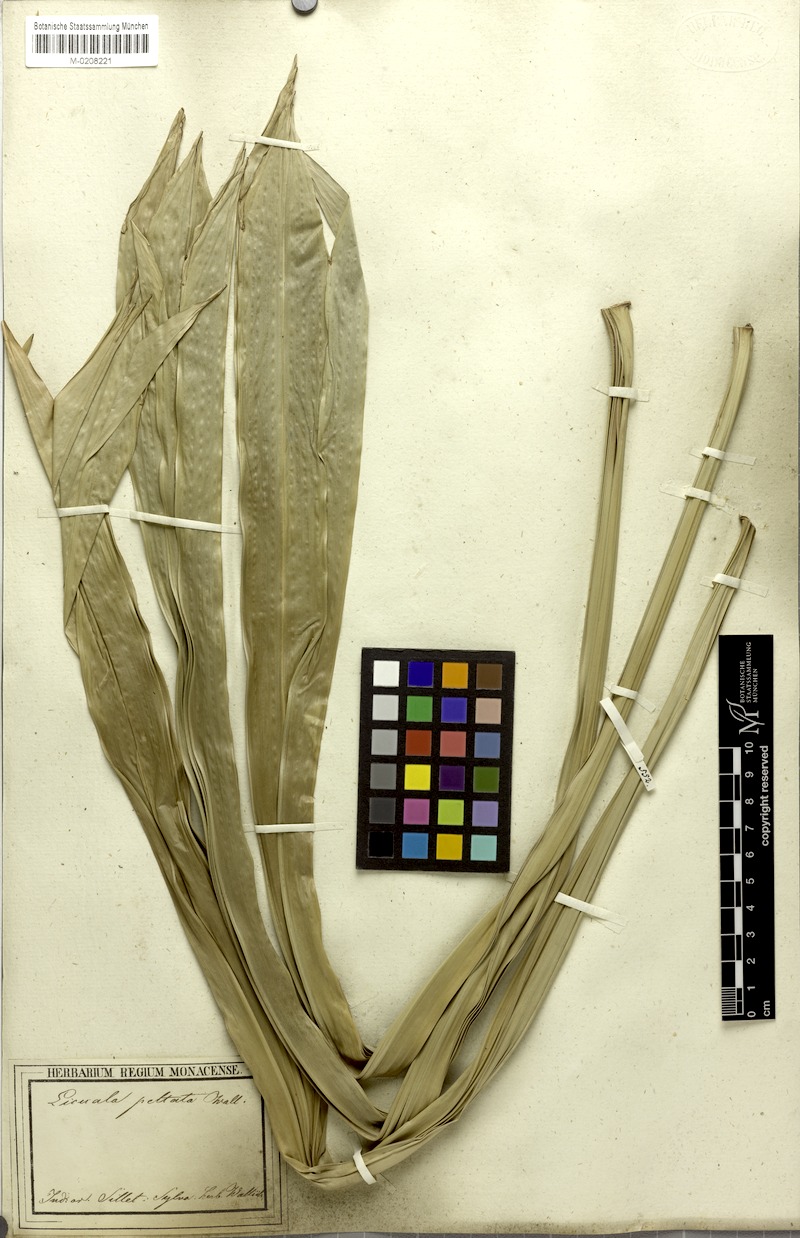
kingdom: Plantae
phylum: Tracheophyta
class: Liliopsida
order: Arecales
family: Arecaceae
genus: Licuala
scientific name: Licuala peltata
